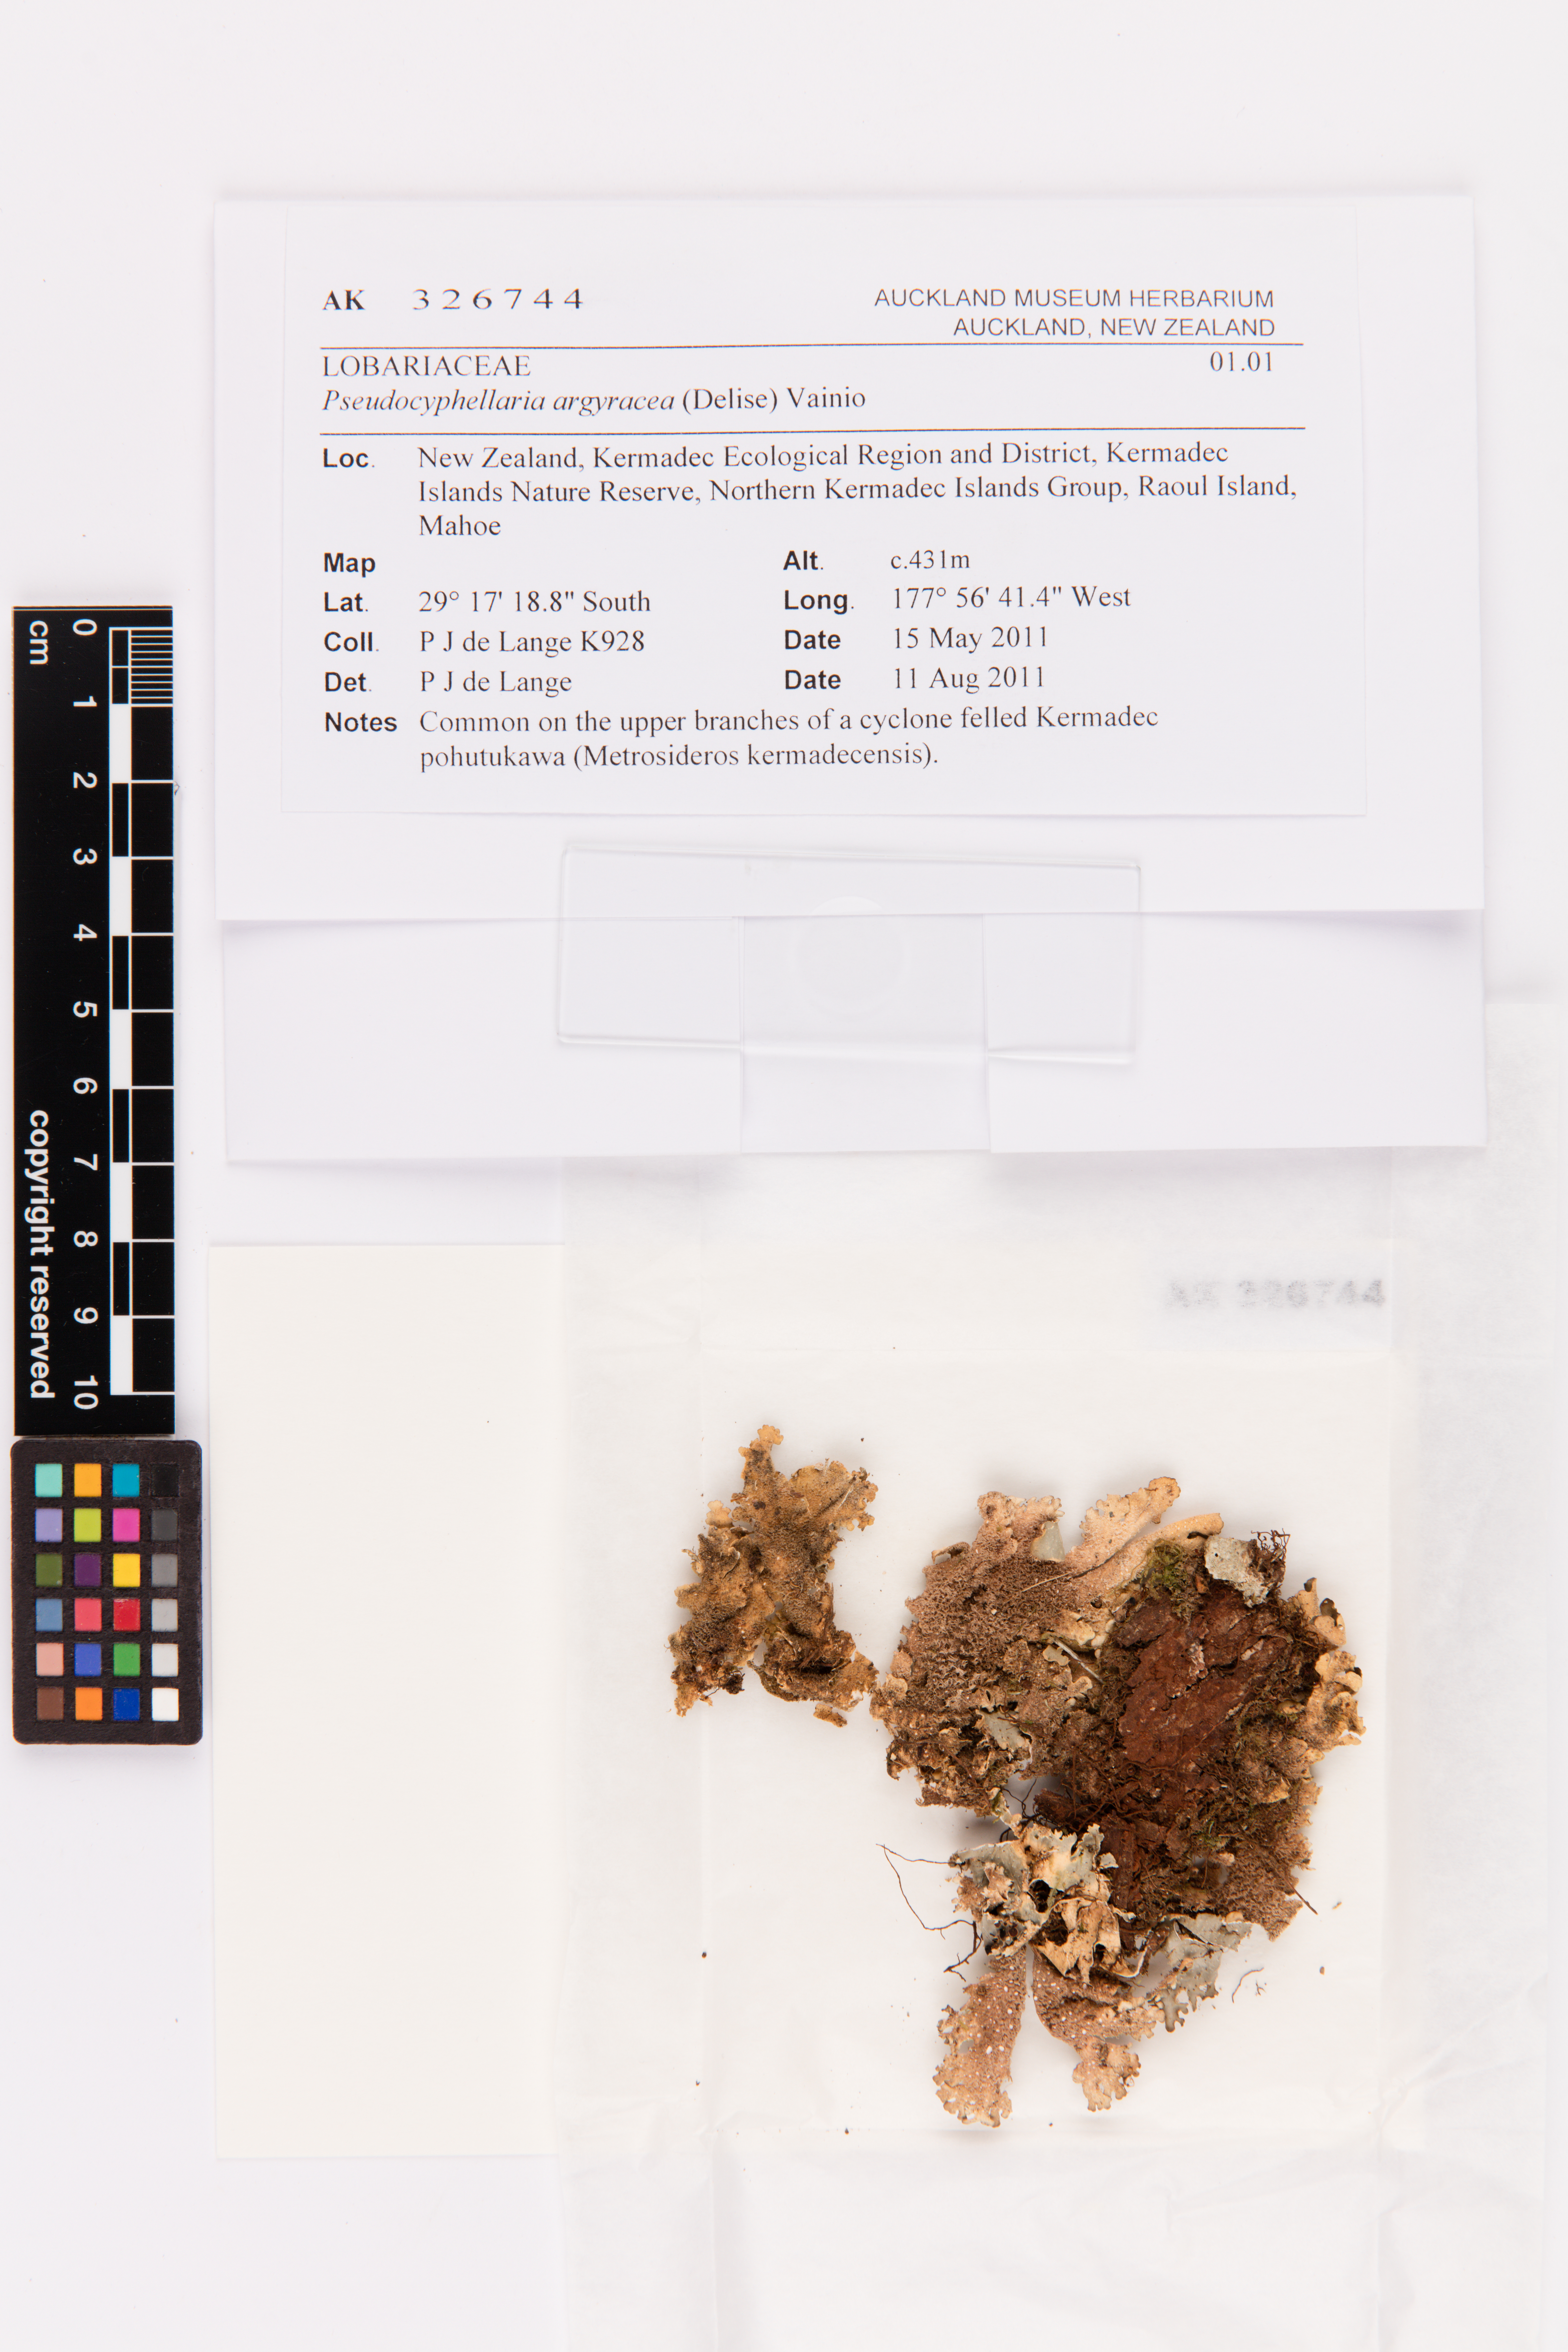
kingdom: Fungi
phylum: Ascomycota
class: Lecanoromycetes
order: Peltigerales
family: Lobariaceae
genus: Pseudocyphellaria
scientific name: Pseudocyphellaria argyracea
